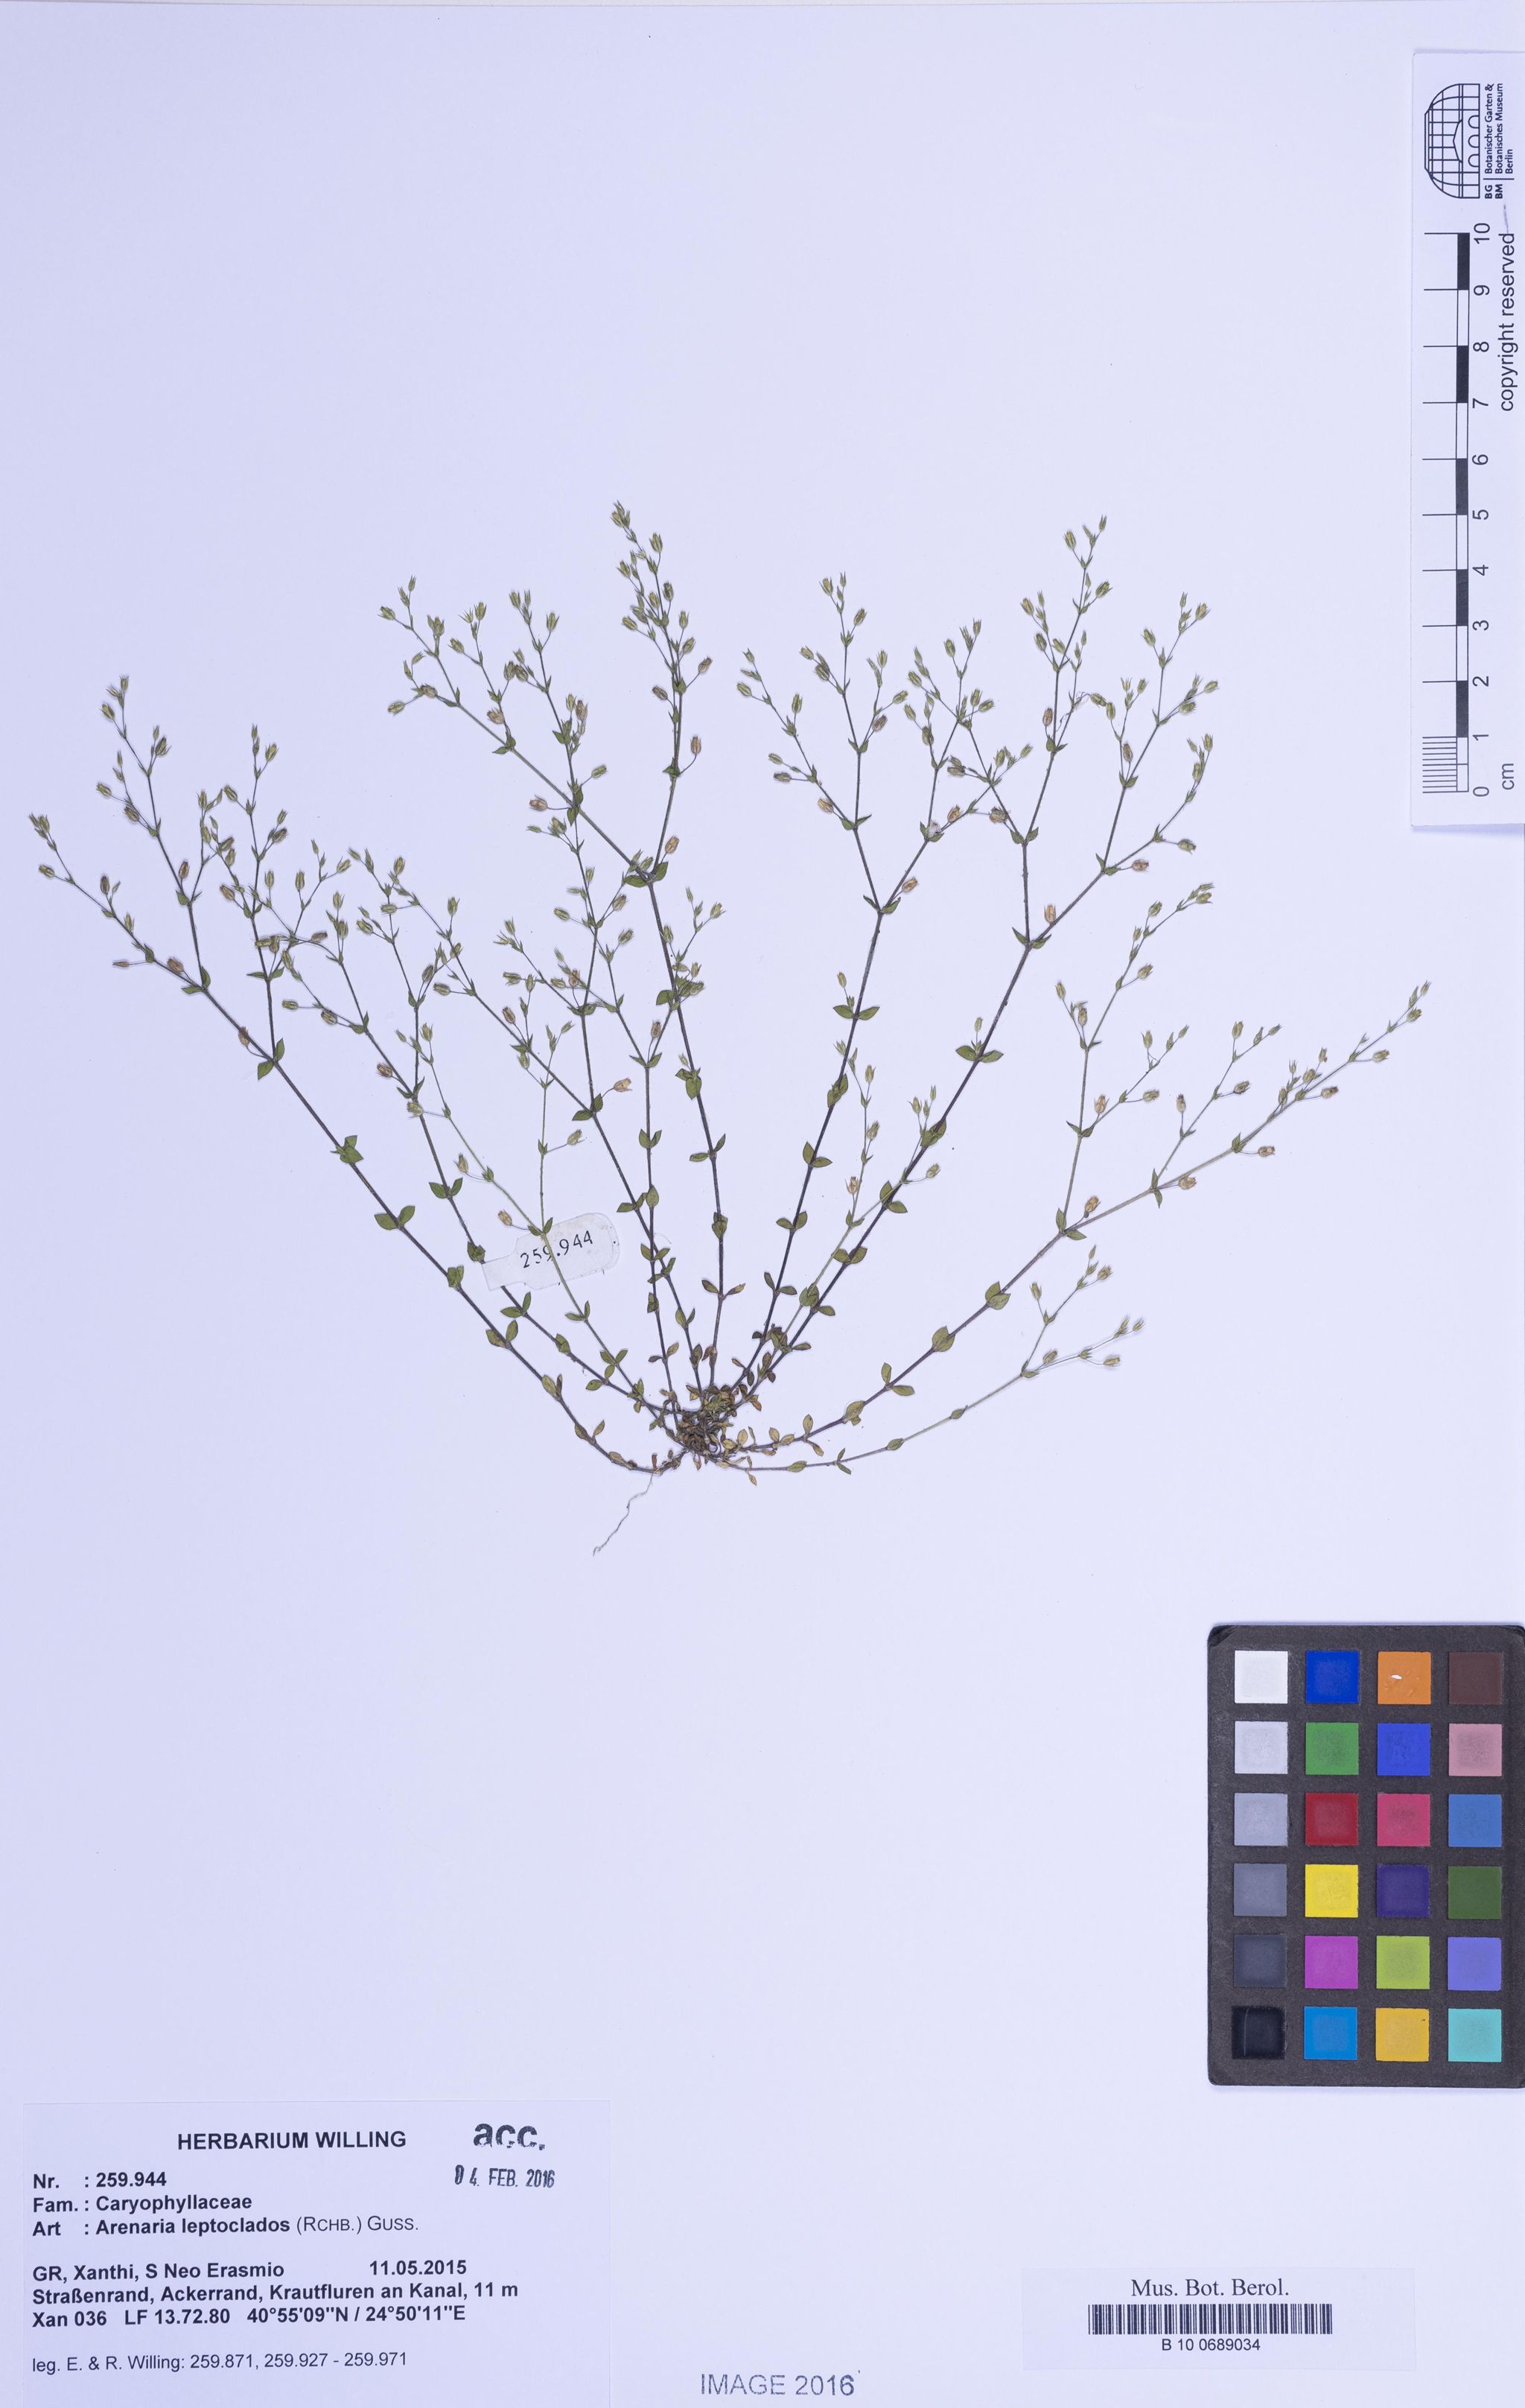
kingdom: Plantae
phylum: Tracheophyta
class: Magnoliopsida
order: Caryophyllales
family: Caryophyllaceae
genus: Arenaria
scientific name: Arenaria leptoclados
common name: Thyme-leaved sandwort
